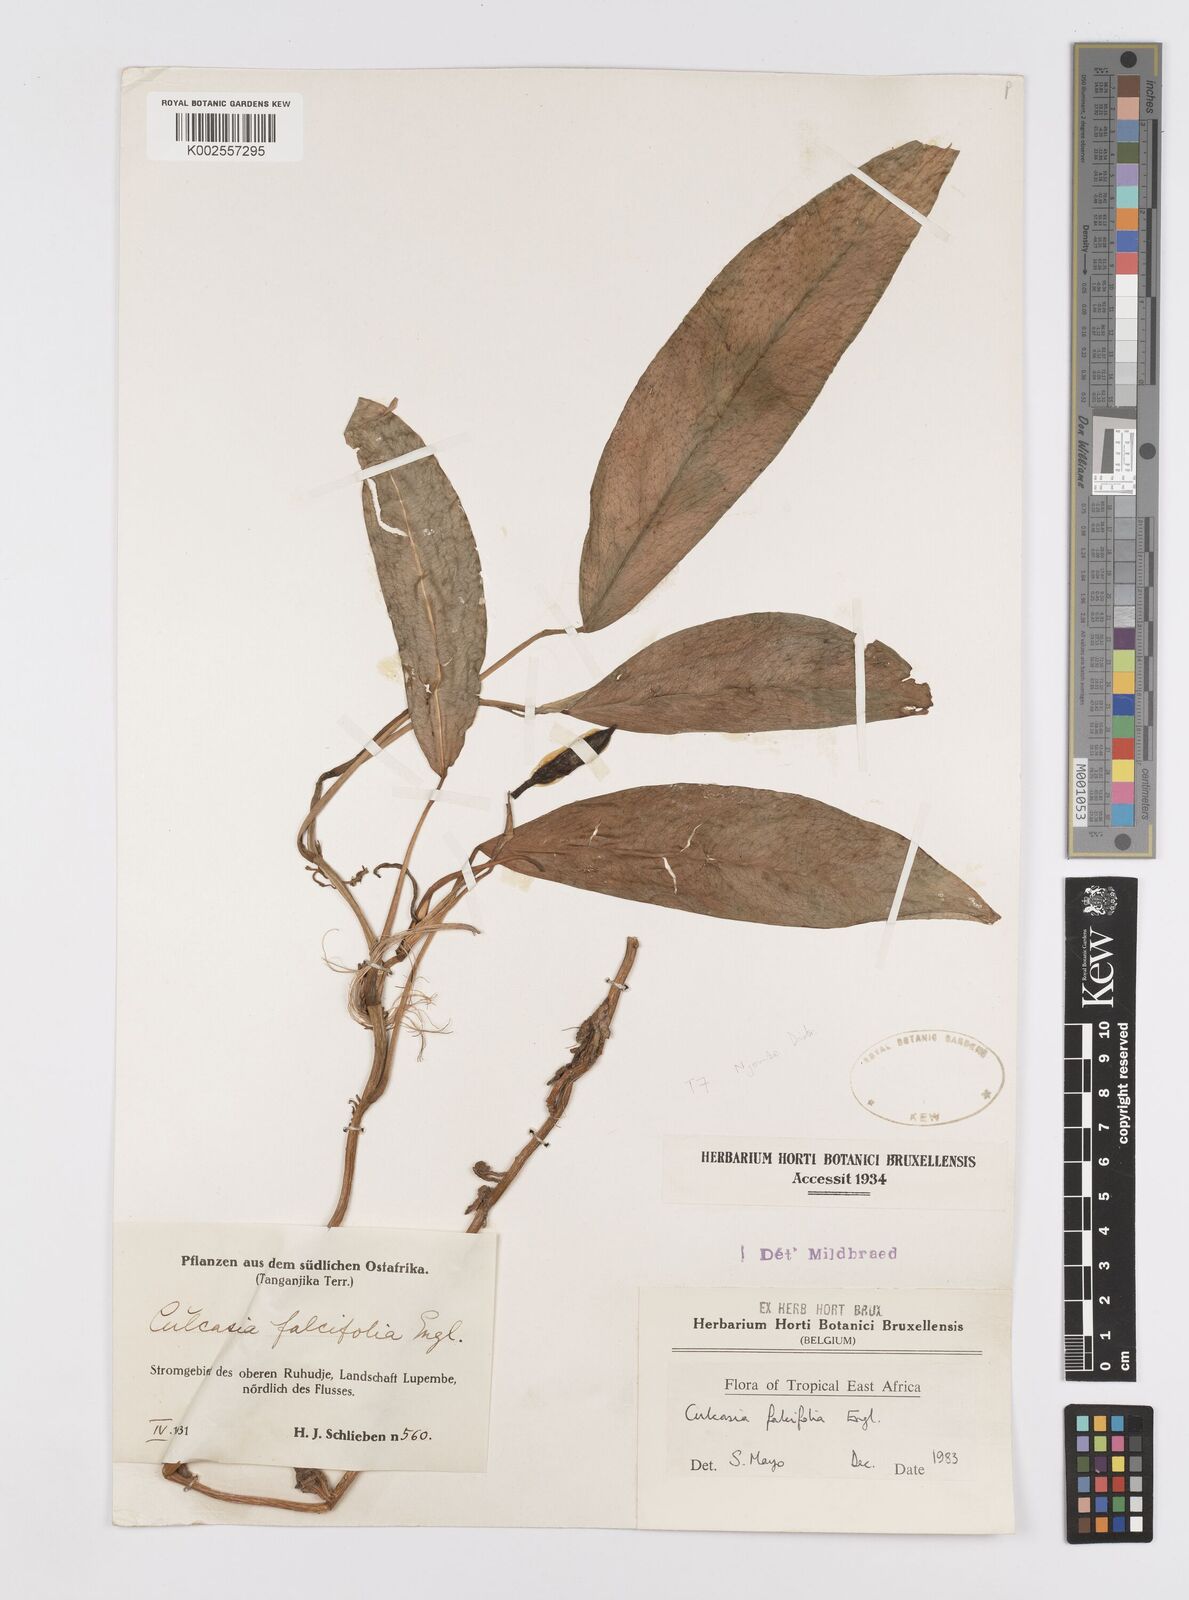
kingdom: Plantae
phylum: Tracheophyta
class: Liliopsida
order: Alismatales
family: Araceae
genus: Culcasia
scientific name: Culcasia falcifolia
